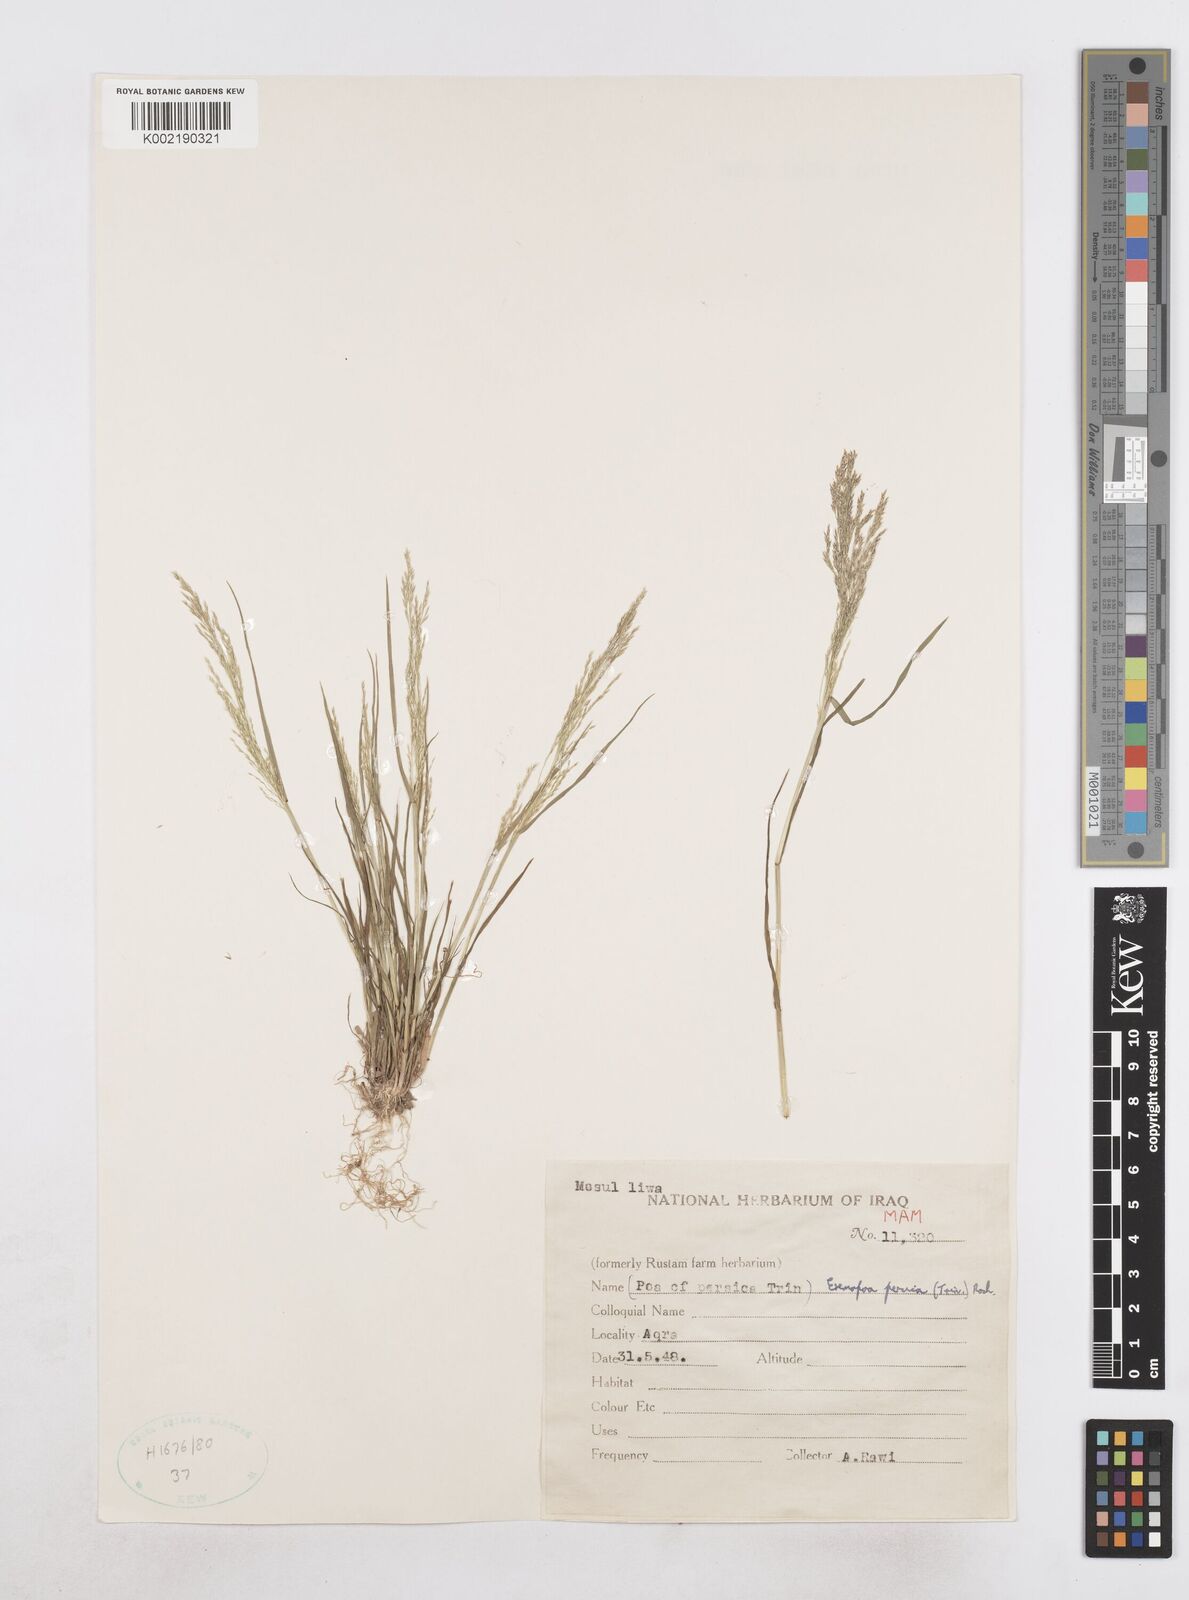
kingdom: Plantae
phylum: Tracheophyta
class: Liliopsida
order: Poales
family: Poaceae
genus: Poa
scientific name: Poa persica
